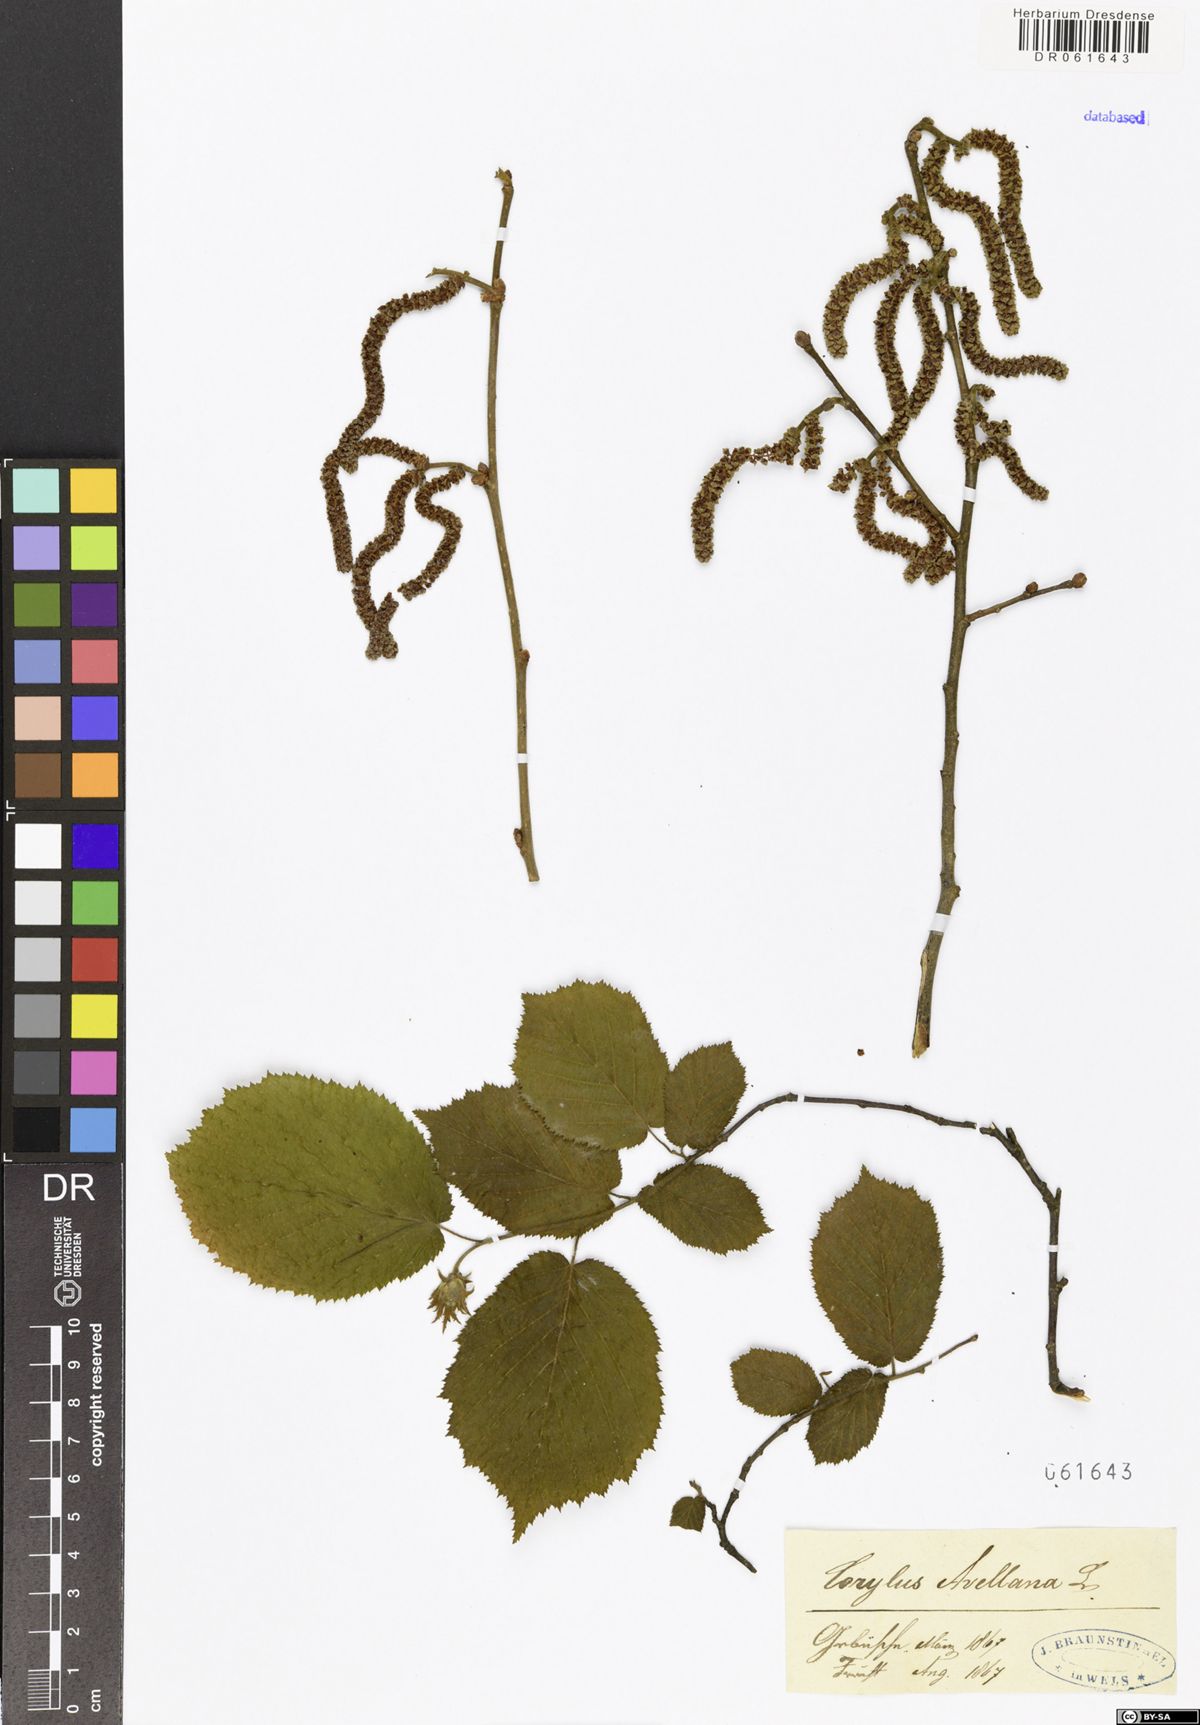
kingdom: Plantae
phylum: Tracheophyta
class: Magnoliopsida
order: Fagales
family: Betulaceae
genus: Corylus
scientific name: Corylus avellana
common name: European hazel
